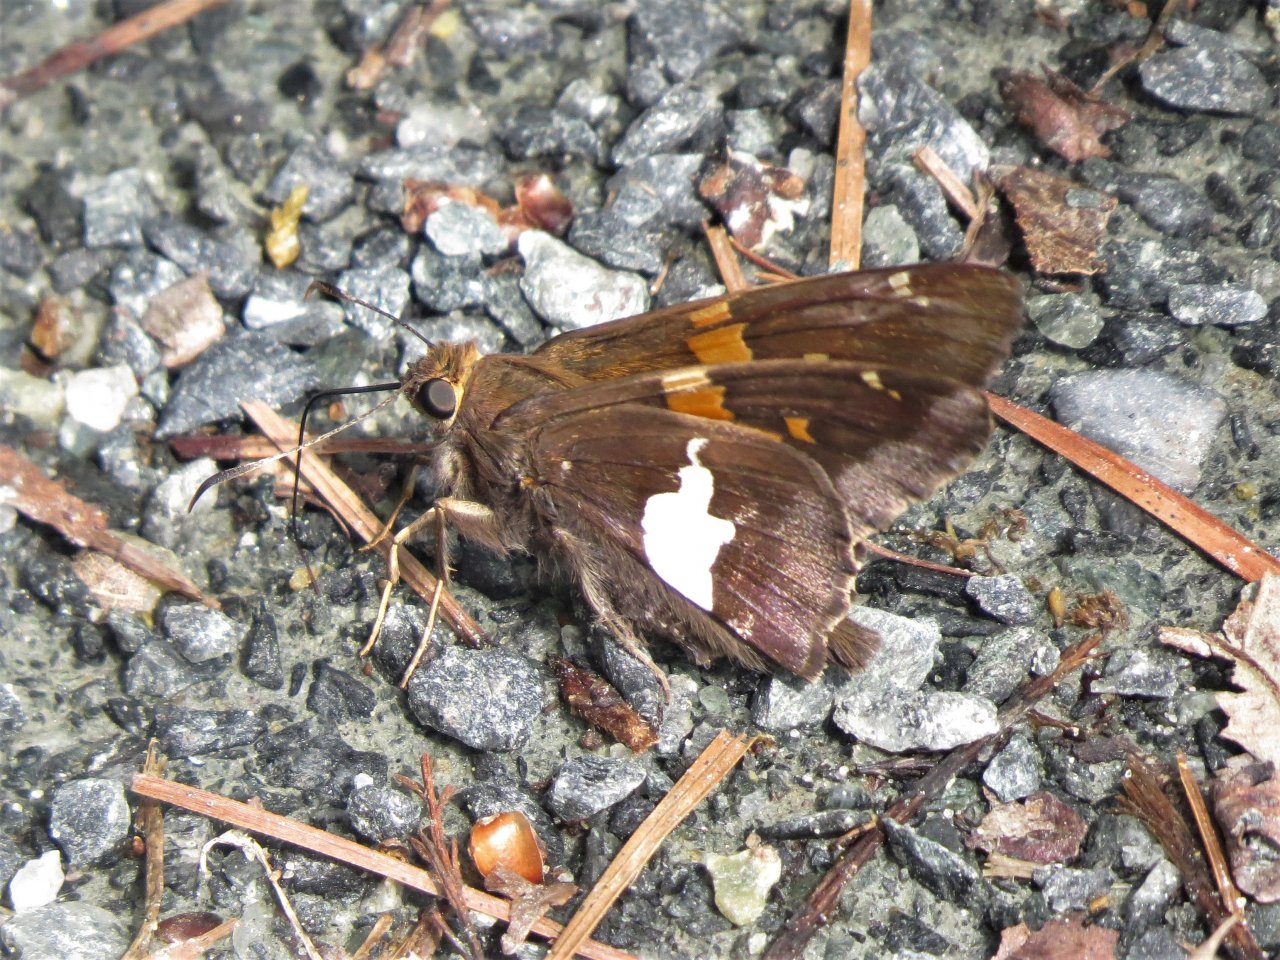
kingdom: Animalia
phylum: Arthropoda
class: Insecta
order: Lepidoptera
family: Hesperiidae
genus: Epargyreus
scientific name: Epargyreus clarus
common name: Silver-spotted Skipper
